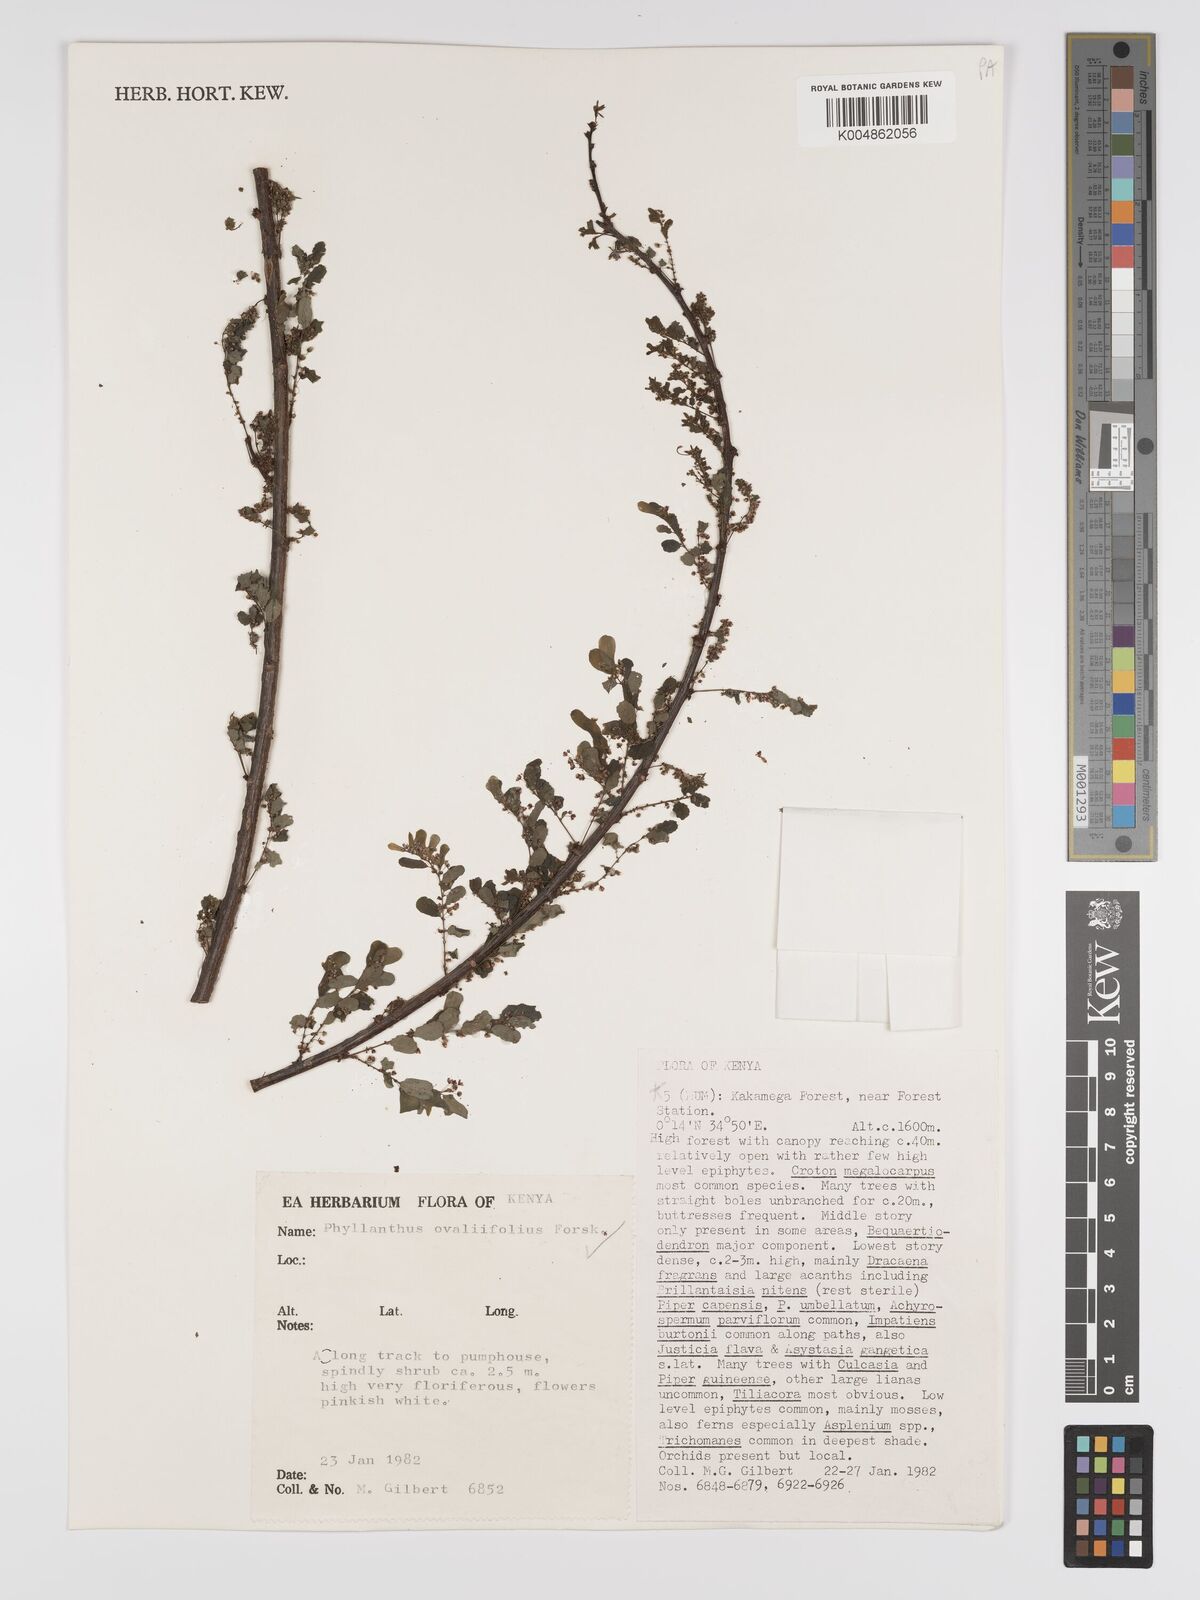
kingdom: Plantae
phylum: Tracheophyta
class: Magnoliopsida
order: Malpighiales
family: Phyllanthaceae
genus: Phyllanthus
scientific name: Phyllanthus ovalifolius
